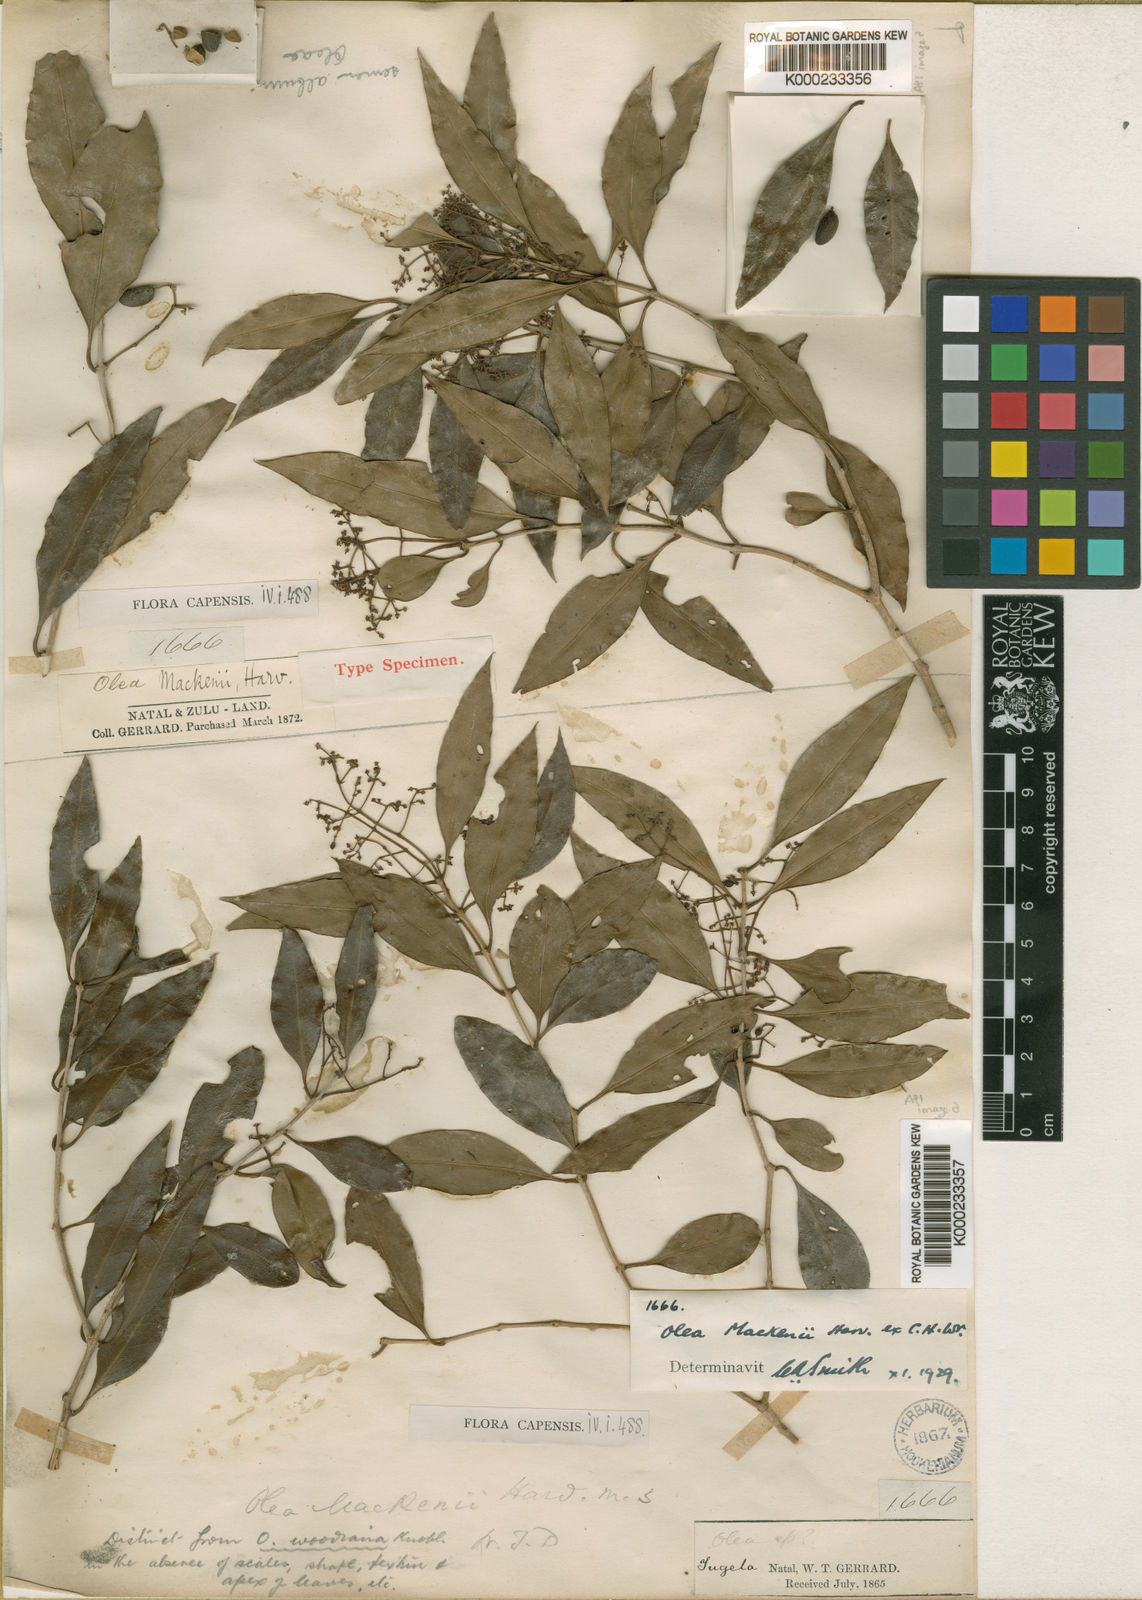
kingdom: Plantae
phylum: Tracheophyta
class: Magnoliopsida
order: Lamiales
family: Oleaceae
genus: Olea
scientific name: Olea woodiana
